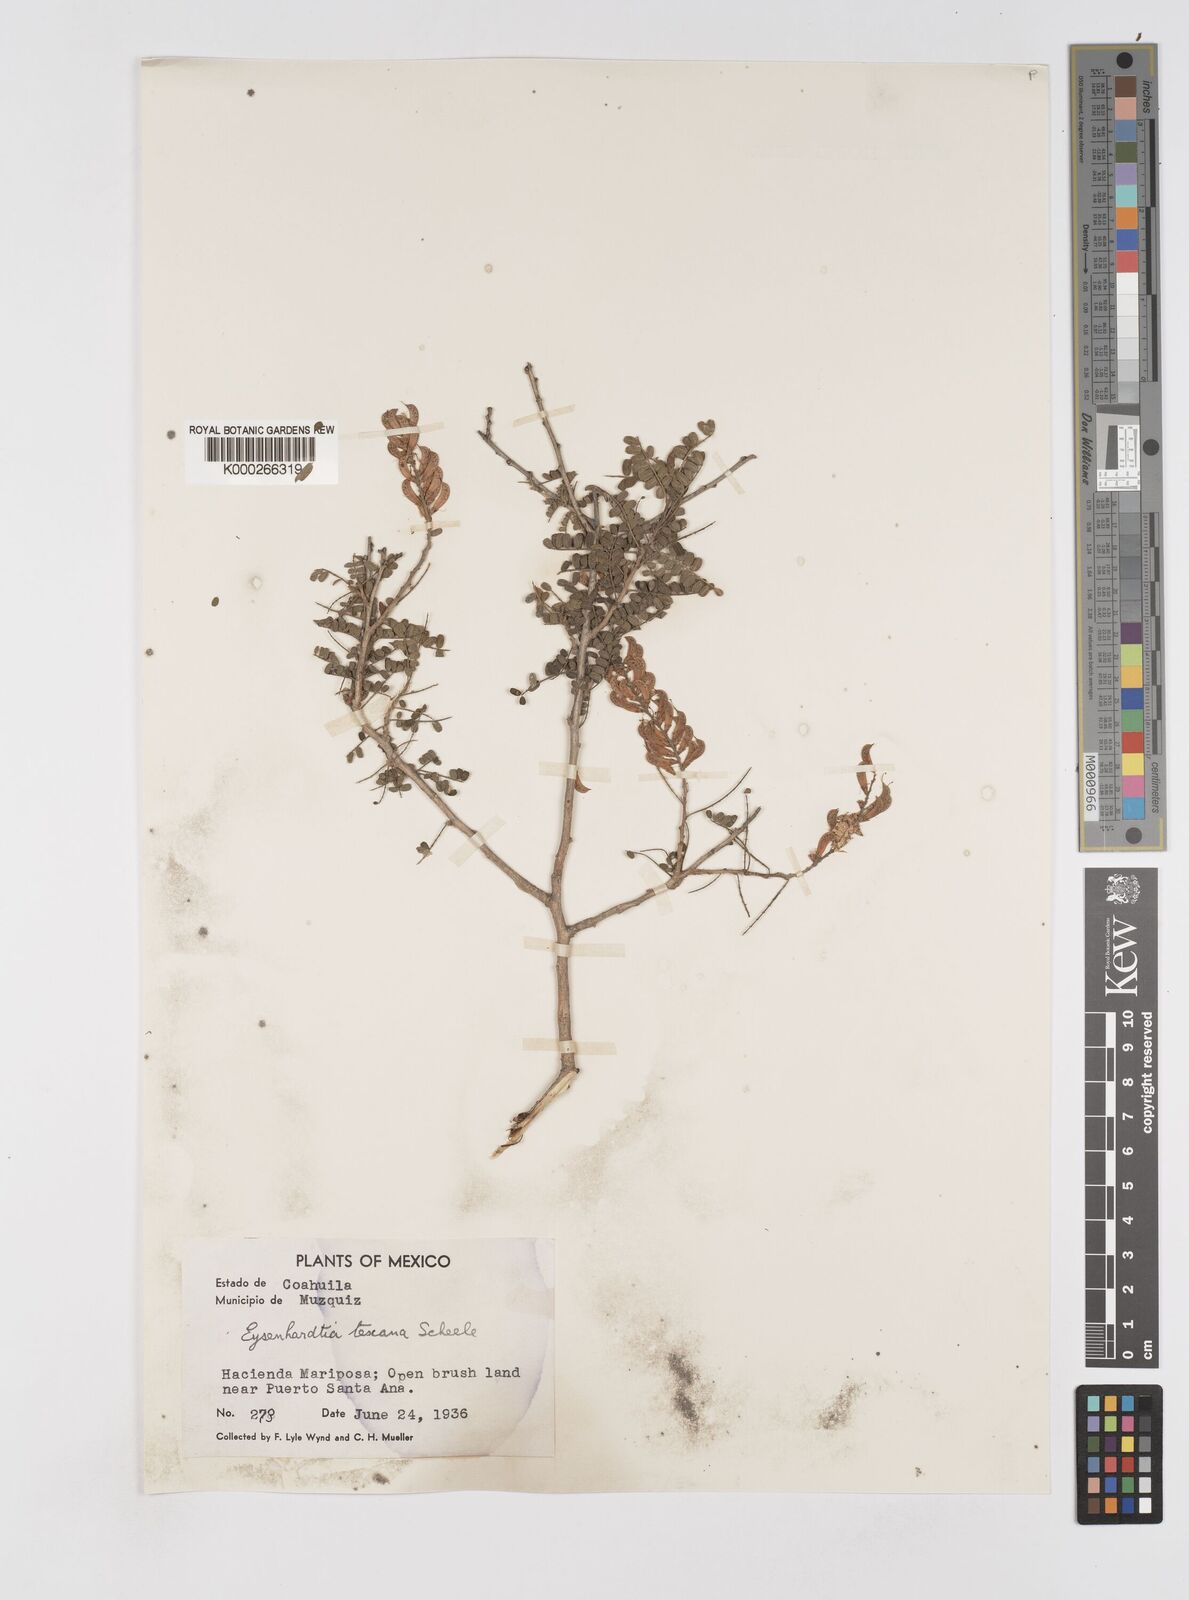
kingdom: Plantae
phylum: Tracheophyta
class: Magnoliopsida
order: Fabales
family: Fabaceae
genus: Eysenhardtia
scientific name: Eysenhardtia texana
